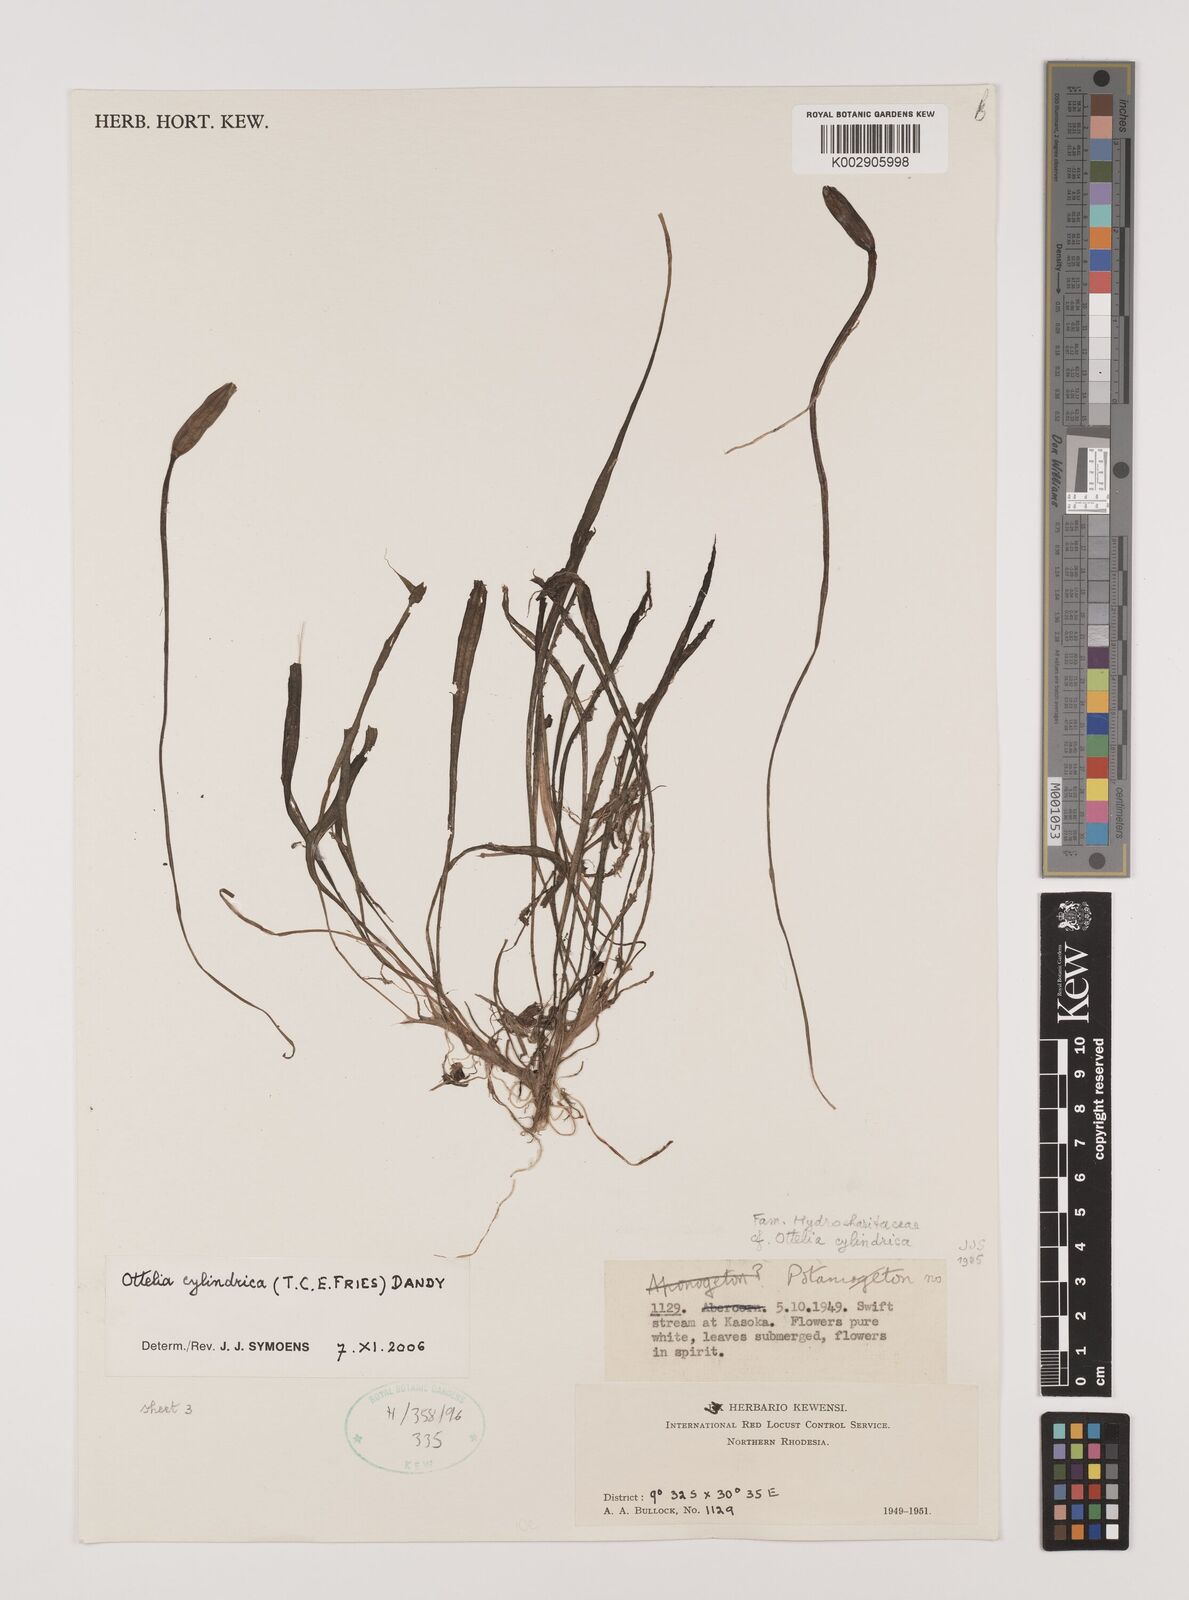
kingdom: Plantae
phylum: Tracheophyta
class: Liliopsida
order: Alismatales
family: Hydrocharitaceae
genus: Ottelia
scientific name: Ottelia cylindrica
